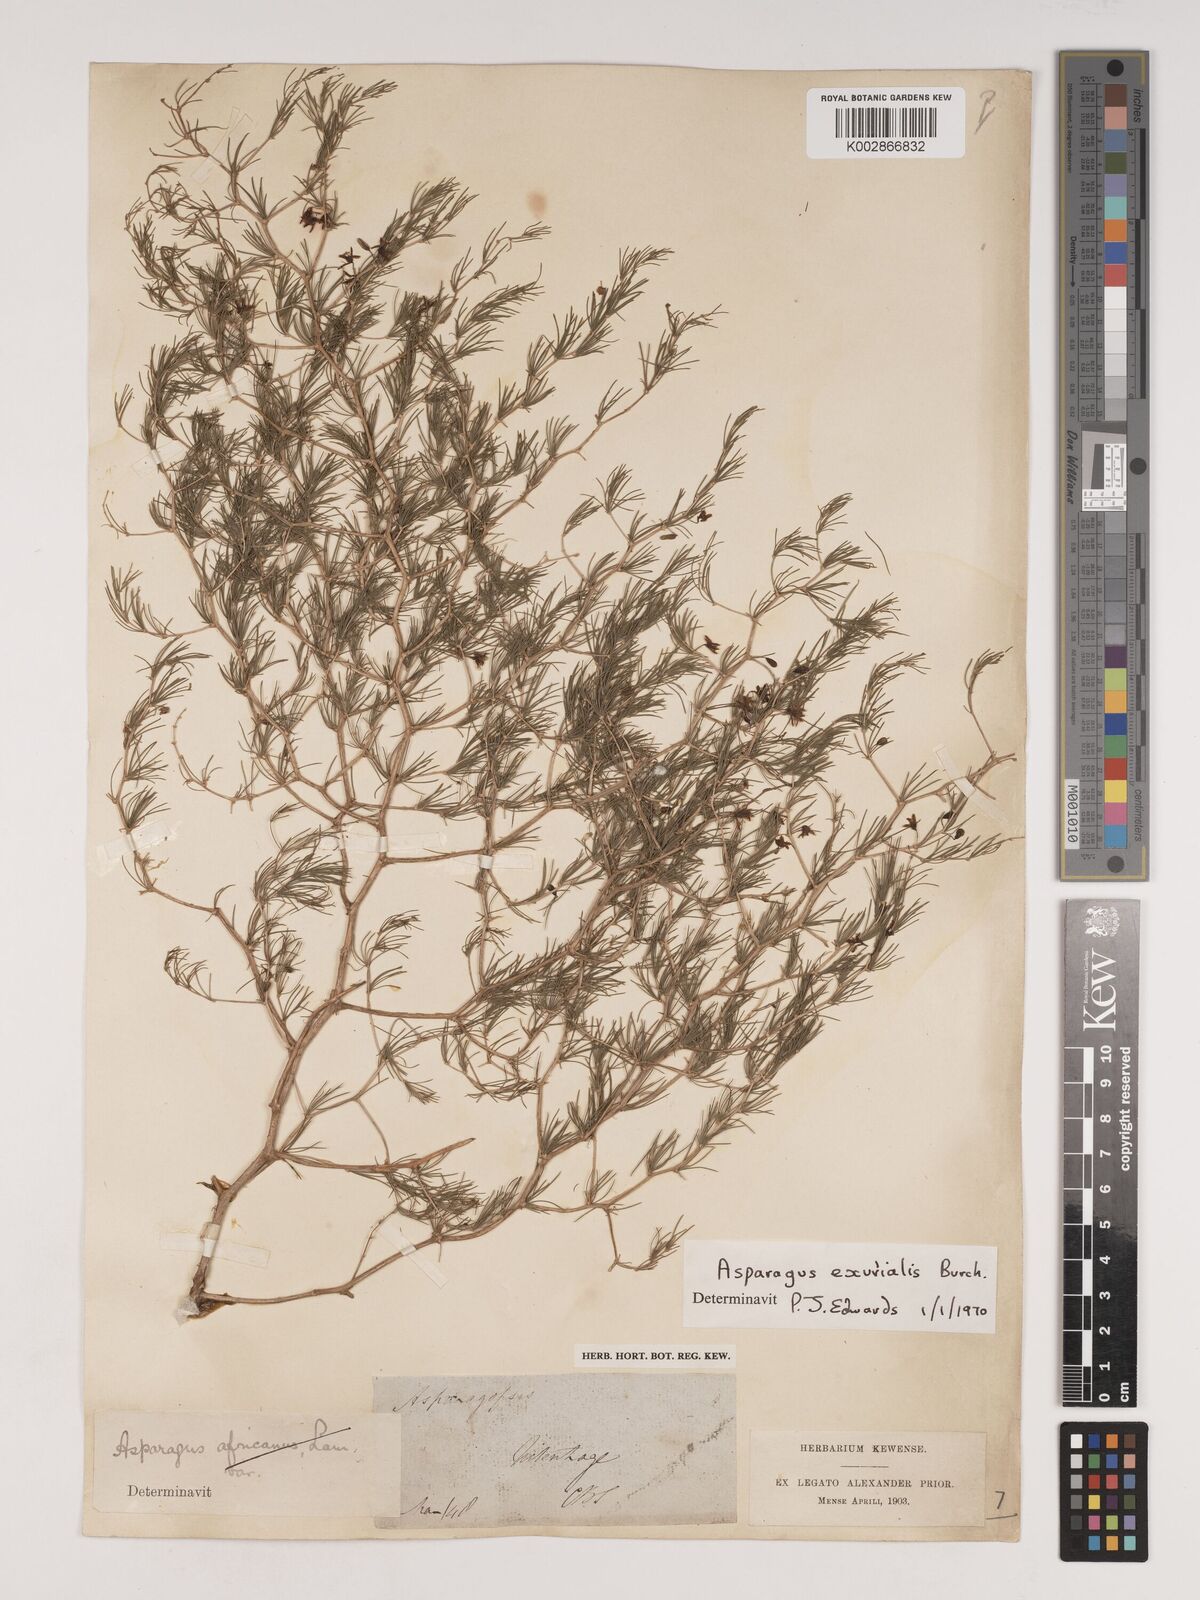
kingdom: Plantae
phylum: Tracheophyta
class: Liliopsida
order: Asparagales
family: Asparagaceae
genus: Asparagus
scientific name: Asparagus exuvialis
